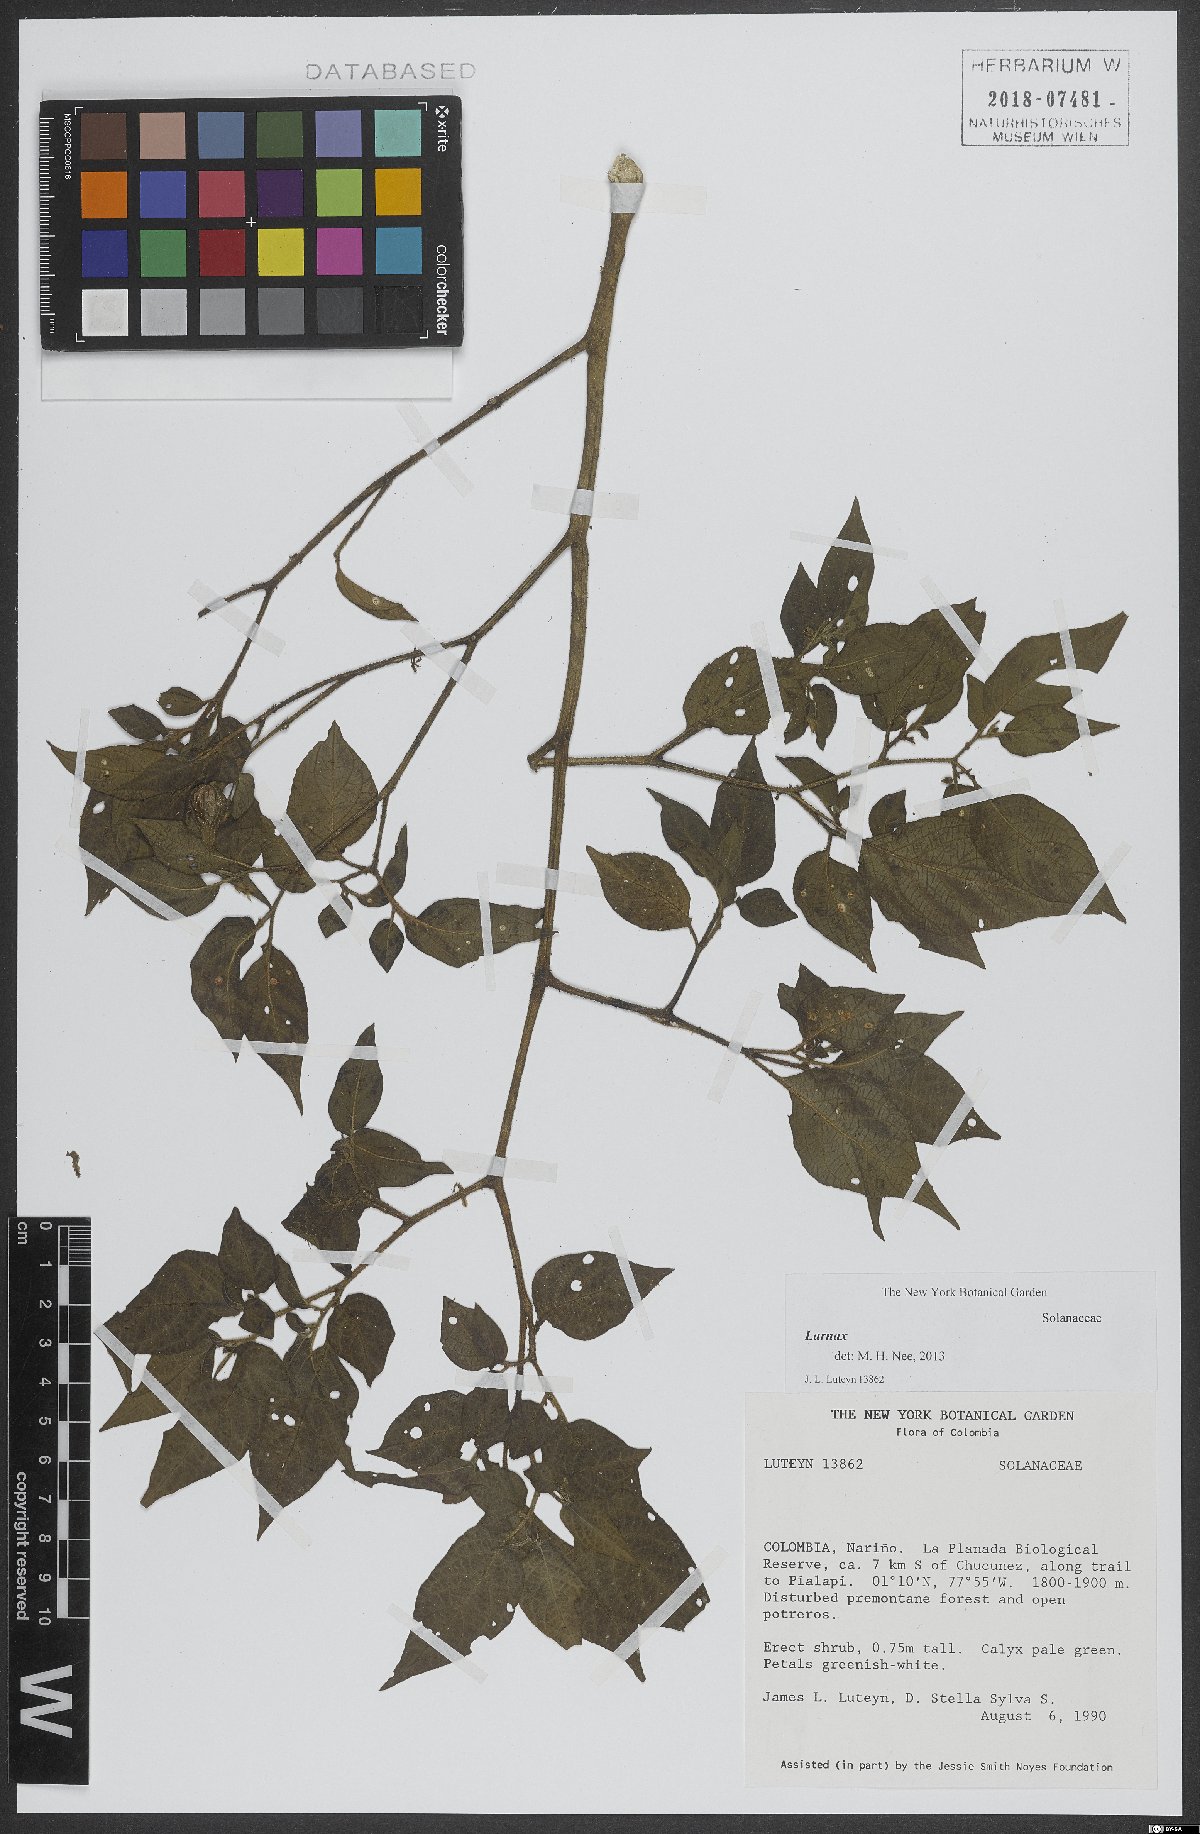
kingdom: Plantae
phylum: Tracheophyta
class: Magnoliopsida
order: Solanales
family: Solanaceae
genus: Deprea
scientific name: Deprea
